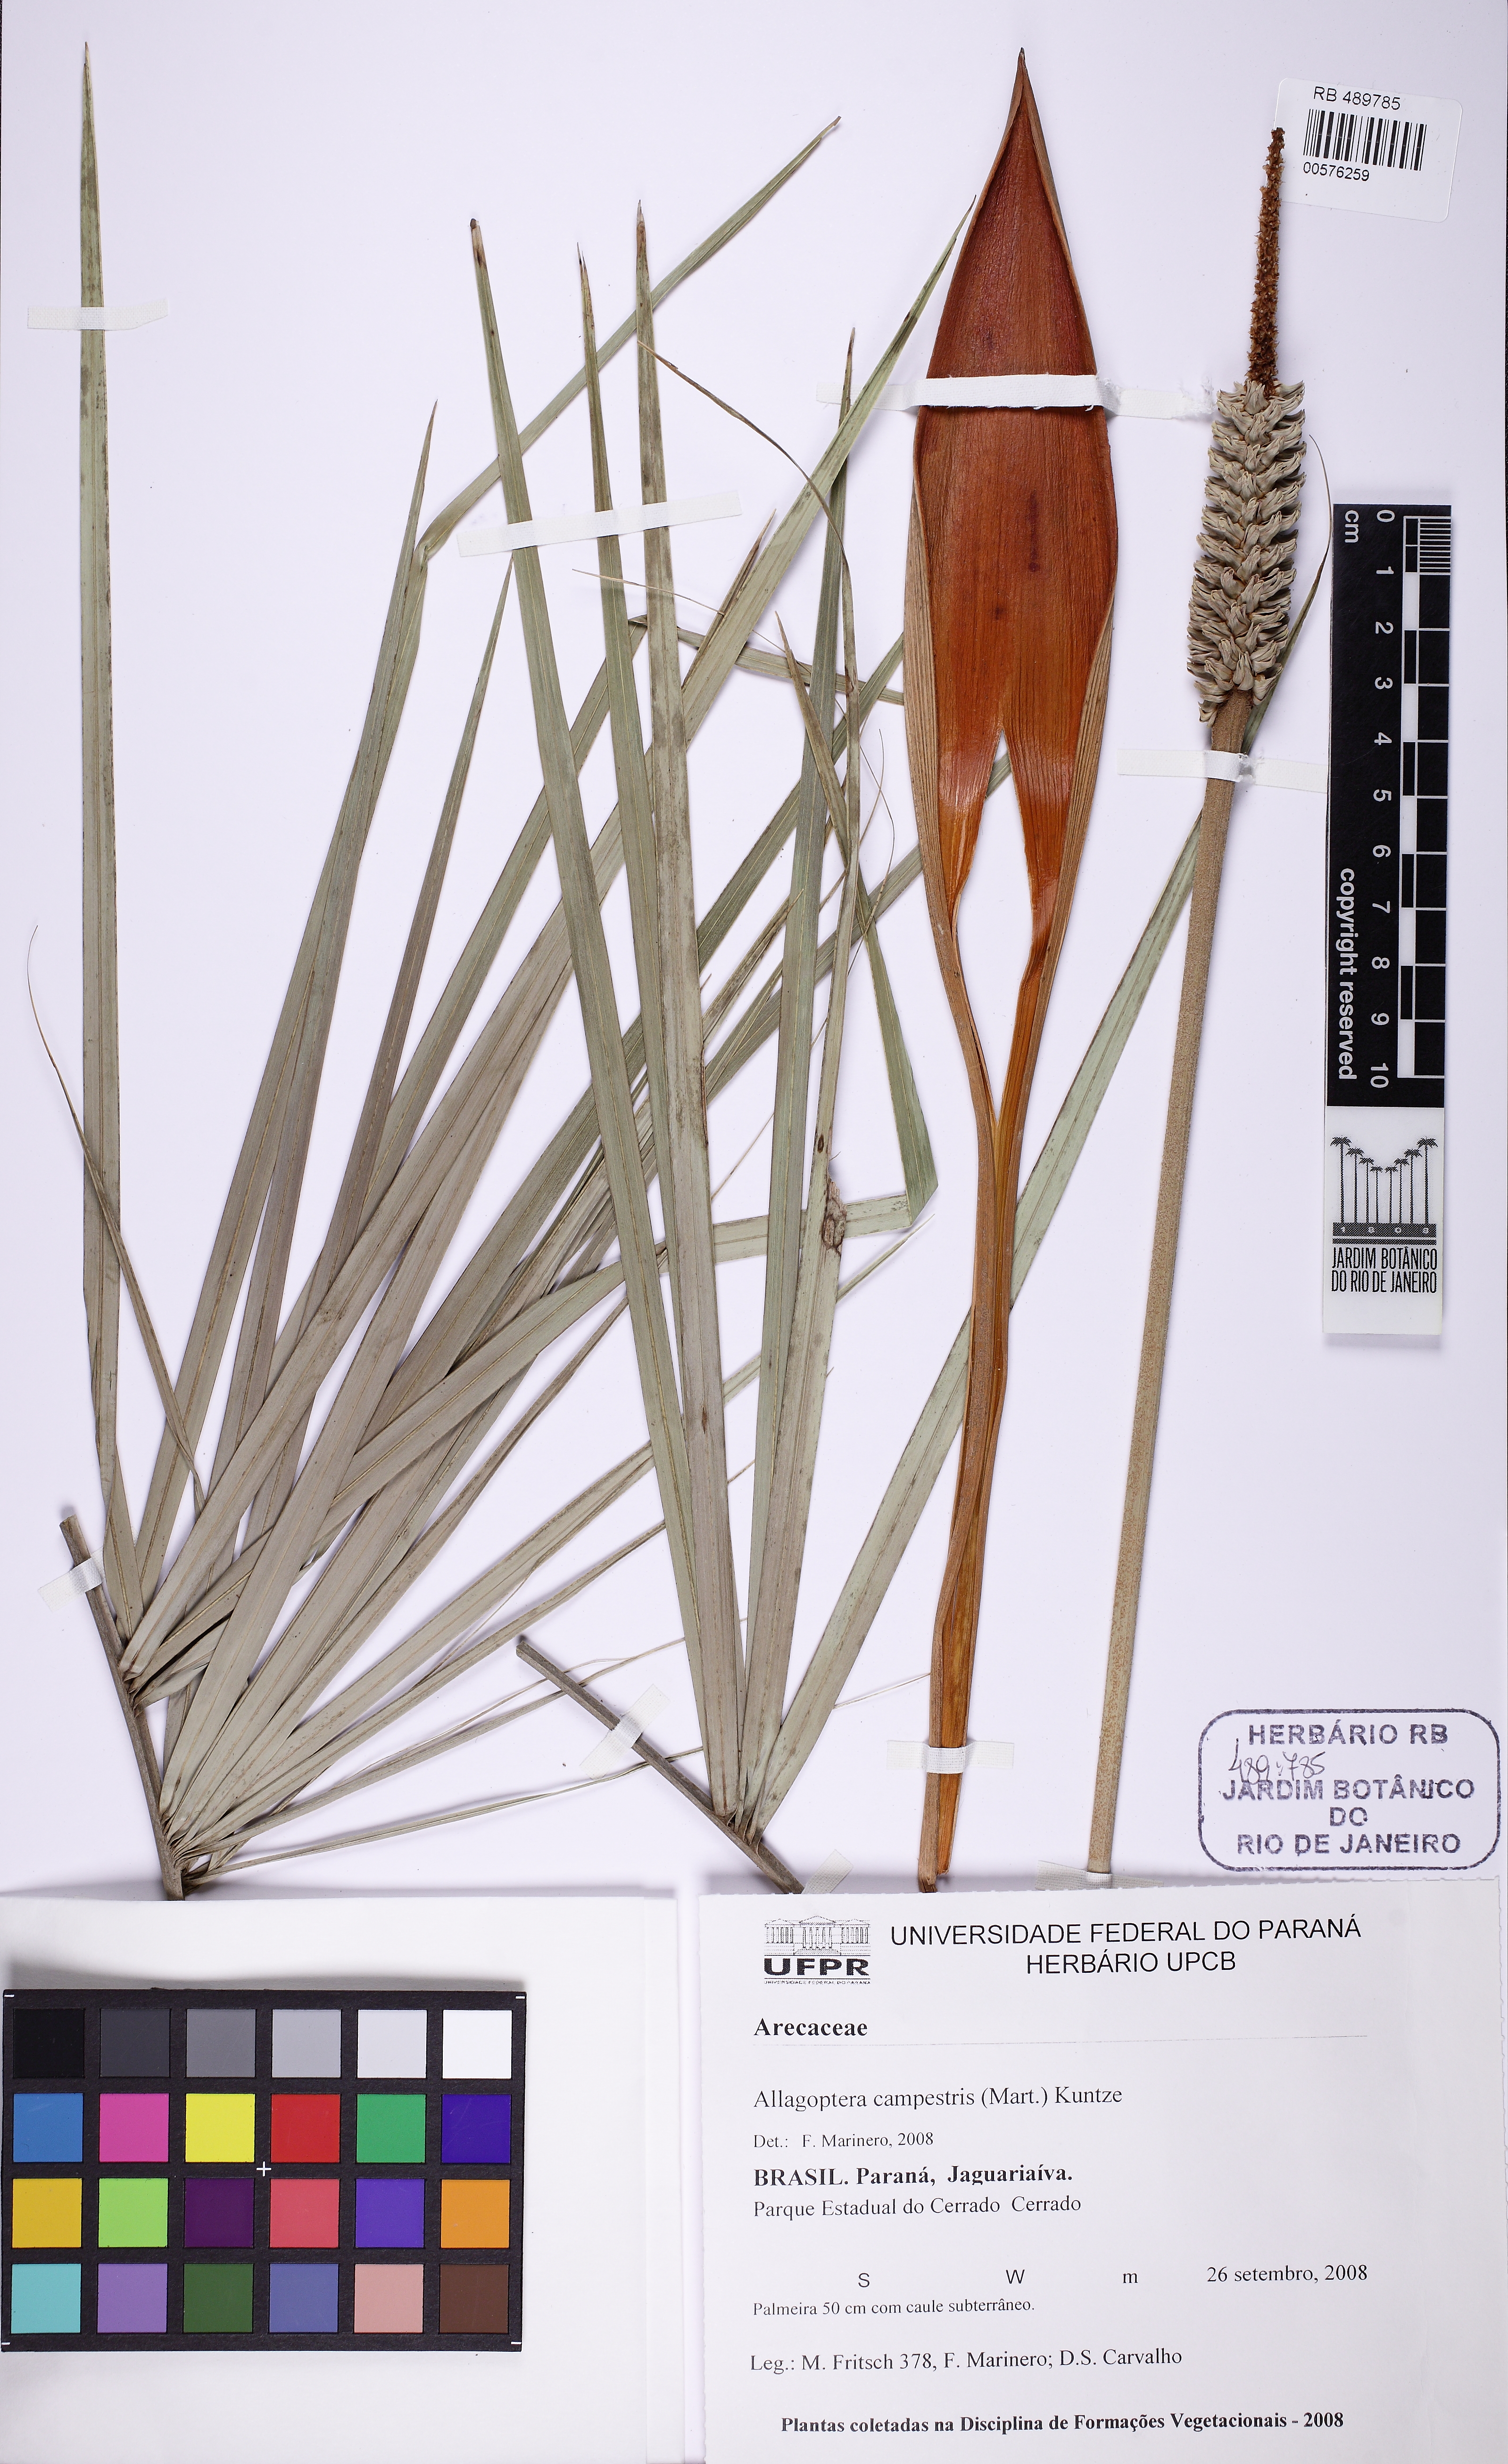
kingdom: Plantae
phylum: Tracheophyta
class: Liliopsida
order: Arecales
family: Arecaceae
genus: Allagoptera
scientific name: Allagoptera campestris
